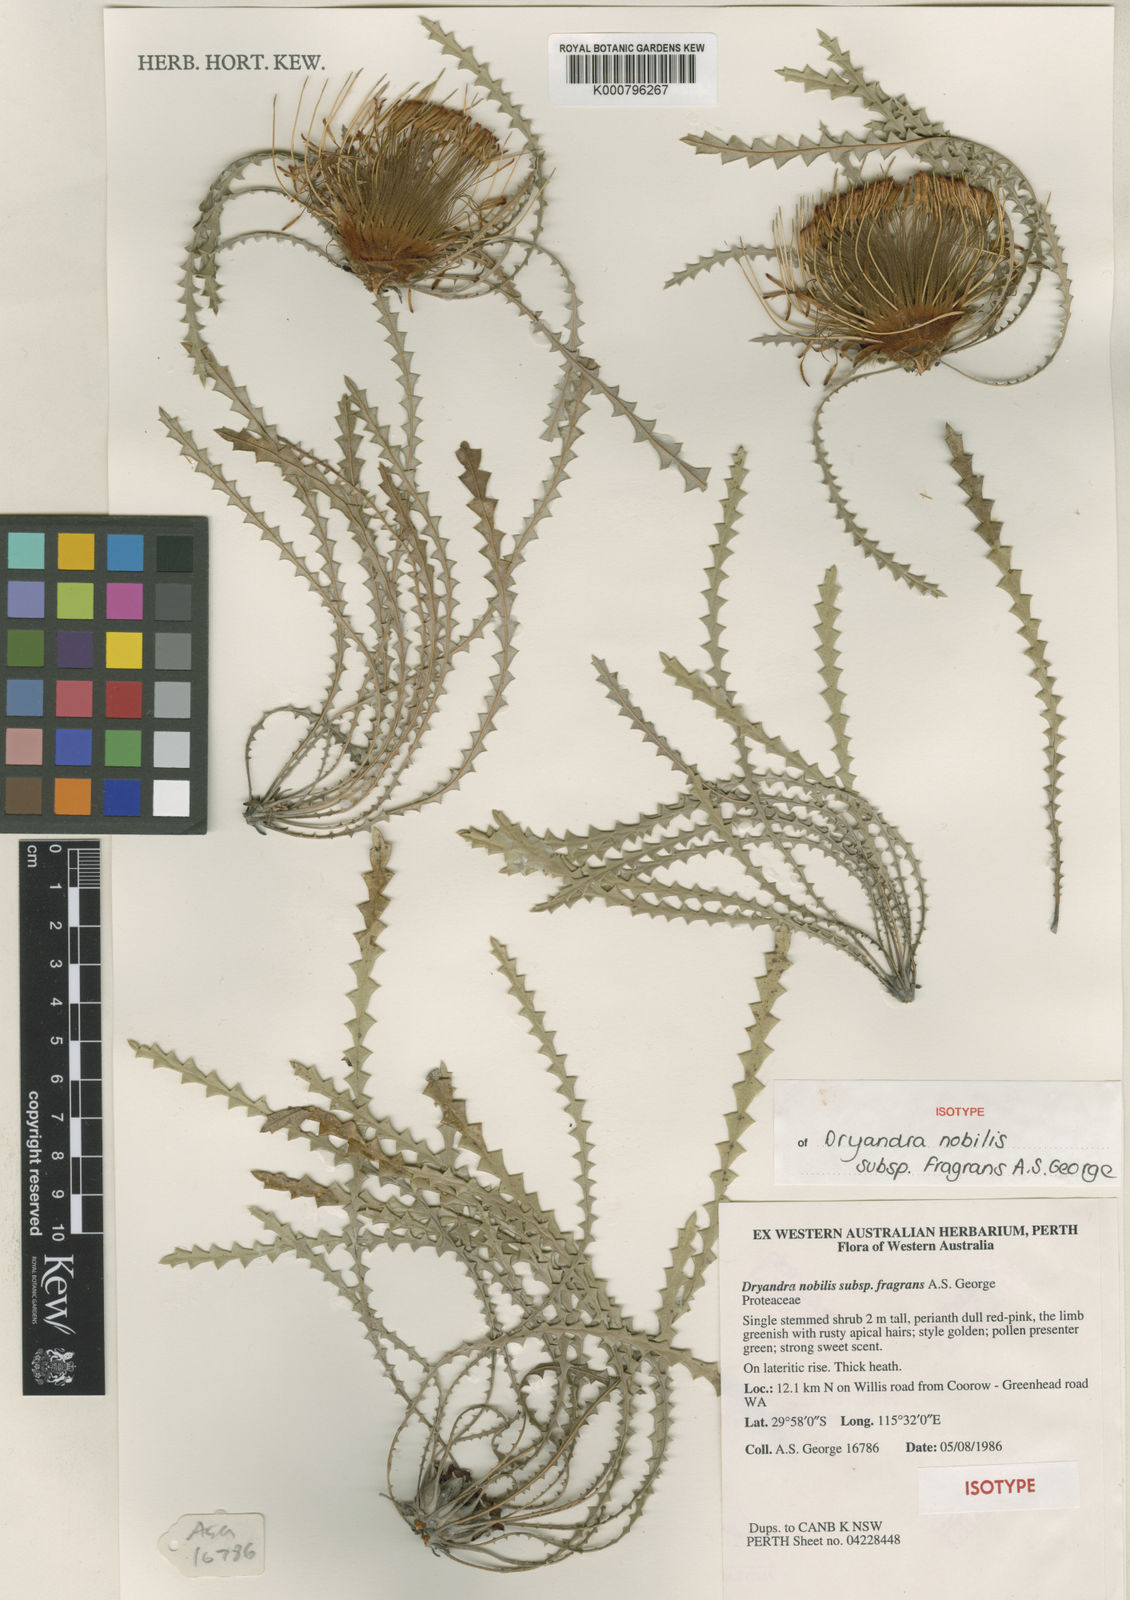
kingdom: Plantae
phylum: Tracheophyta
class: Magnoliopsida
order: Proteales
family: Proteaceae
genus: Banksia
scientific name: Banksia nobilis
